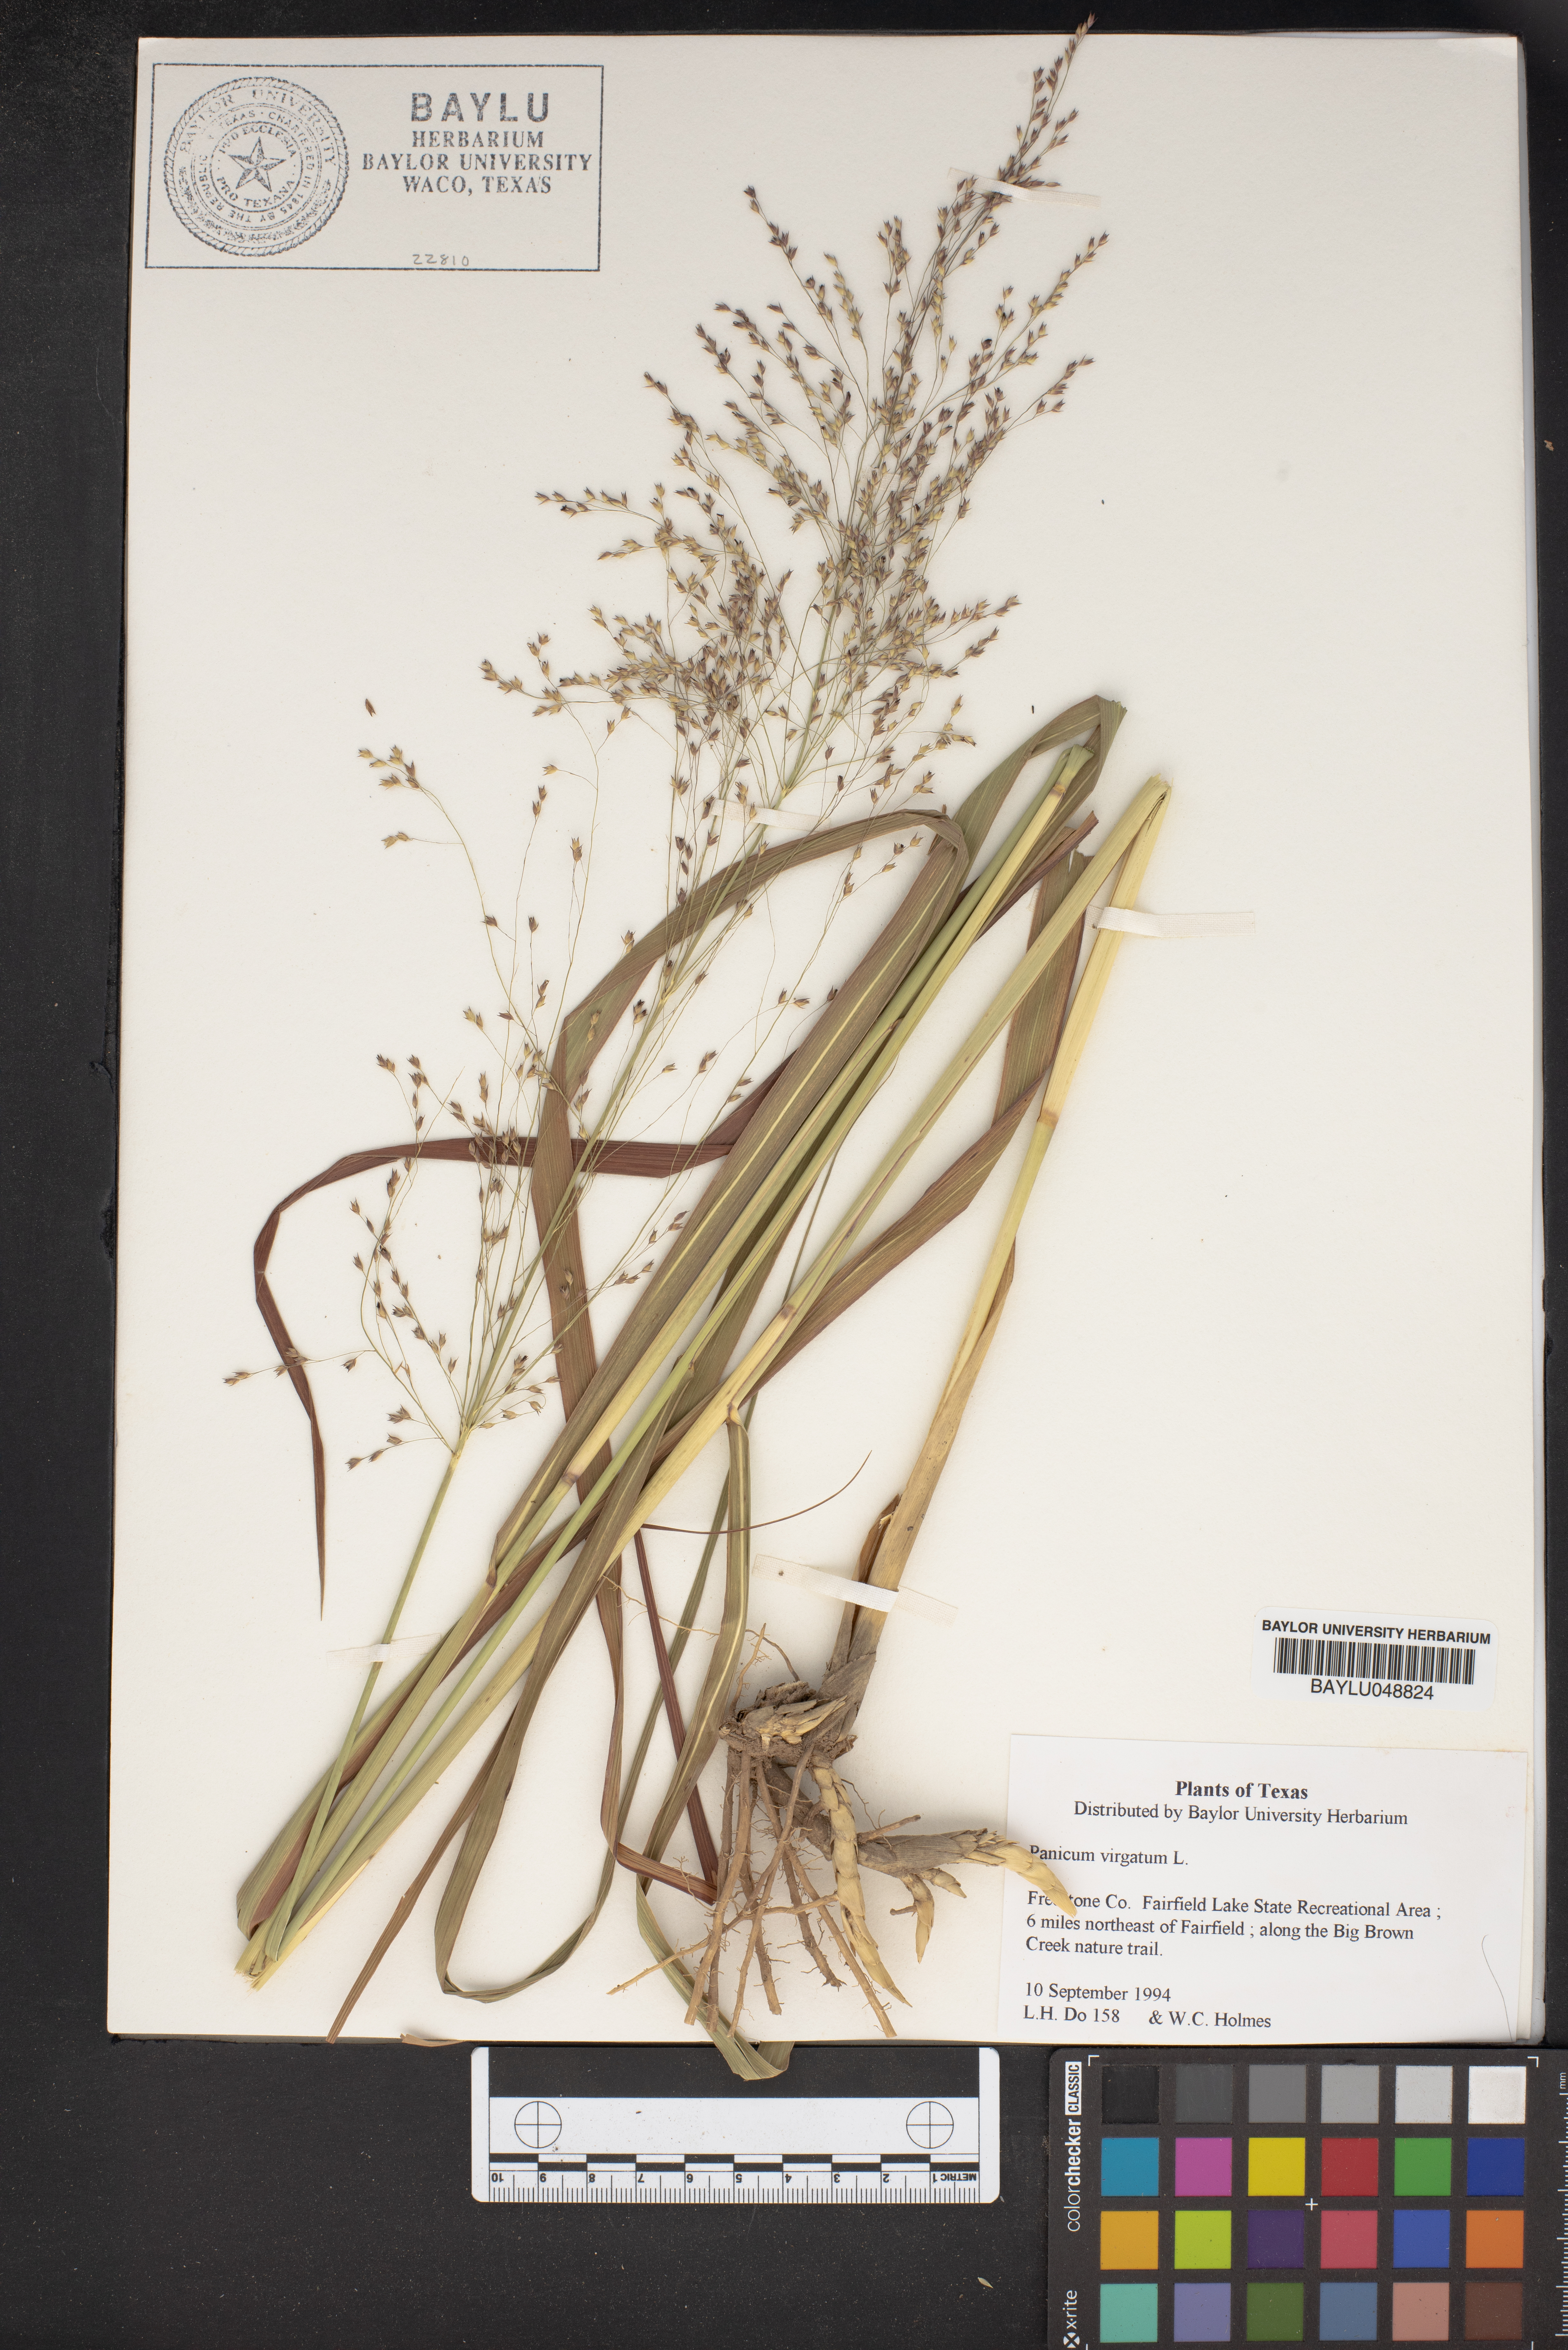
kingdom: Plantae
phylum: Tracheophyta
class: Liliopsida
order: Poales
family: Poaceae
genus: Panicum
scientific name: Panicum virgatum
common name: Switchgrass
